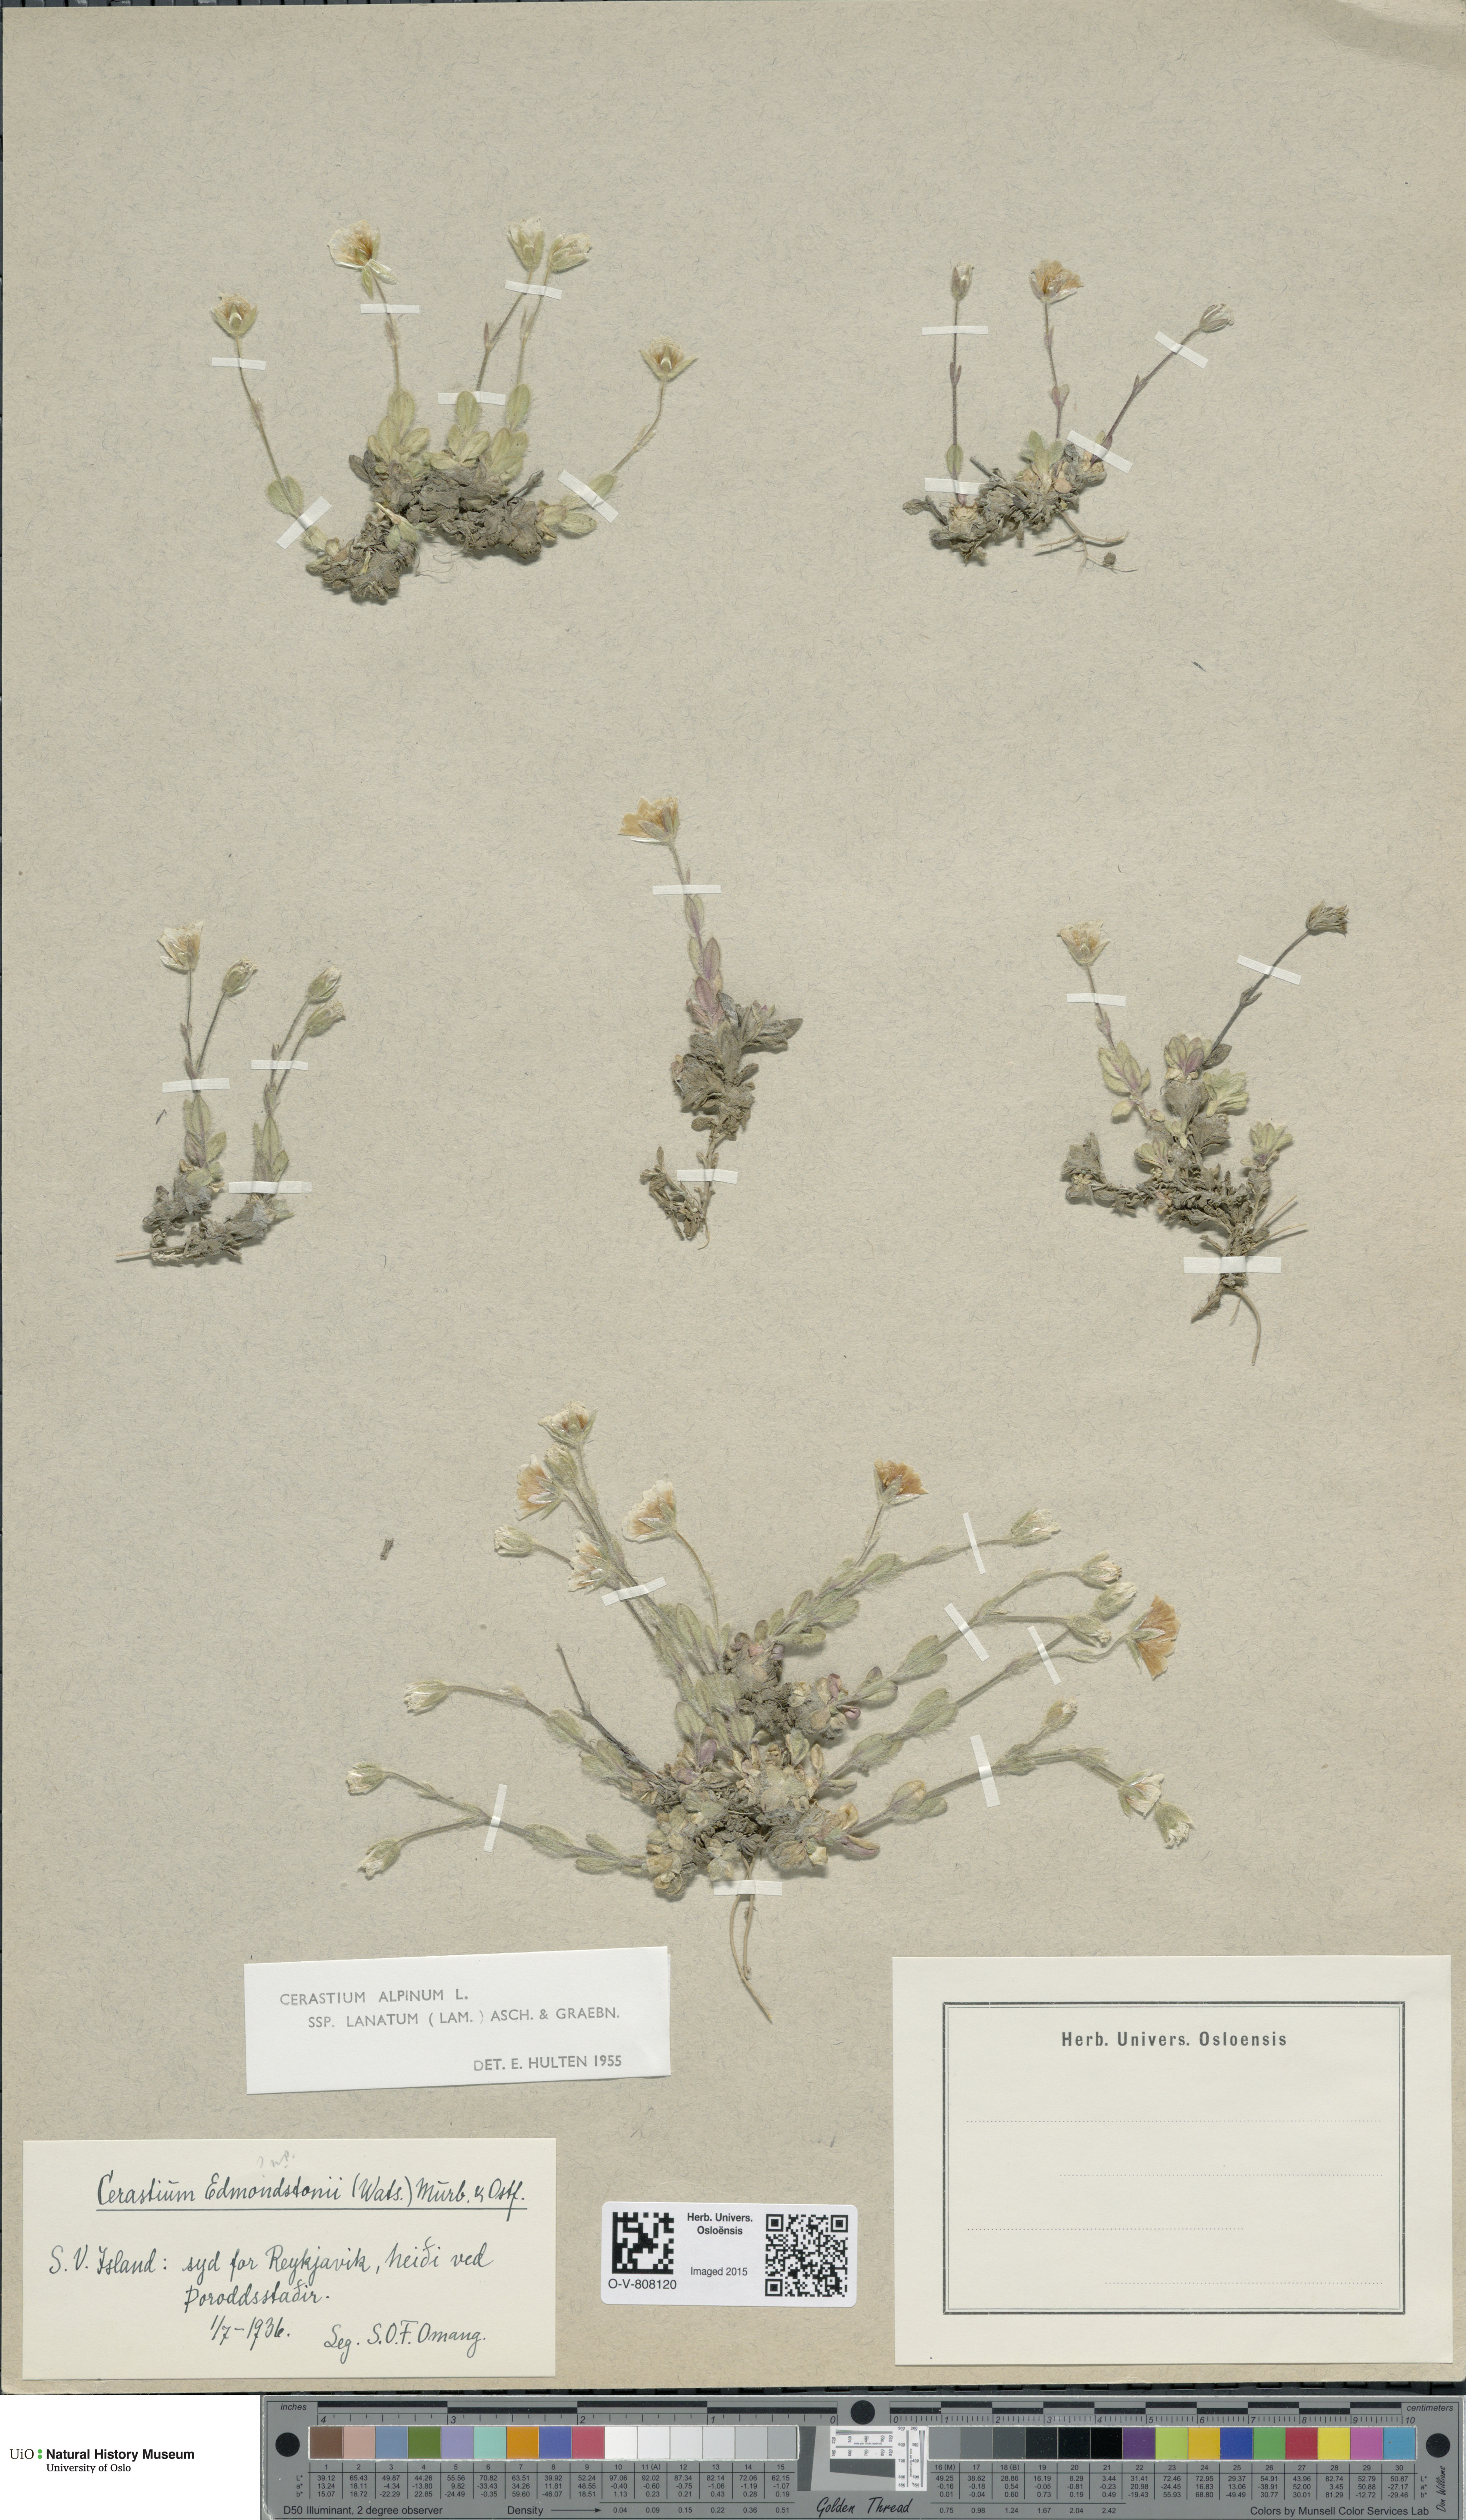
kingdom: Plantae
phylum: Tracheophyta
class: Magnoliopsida
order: Caryophyllales
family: Caryophyllaceae
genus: Cerastium
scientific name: Cerastium alpinum
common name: Alpine mouse-ear
